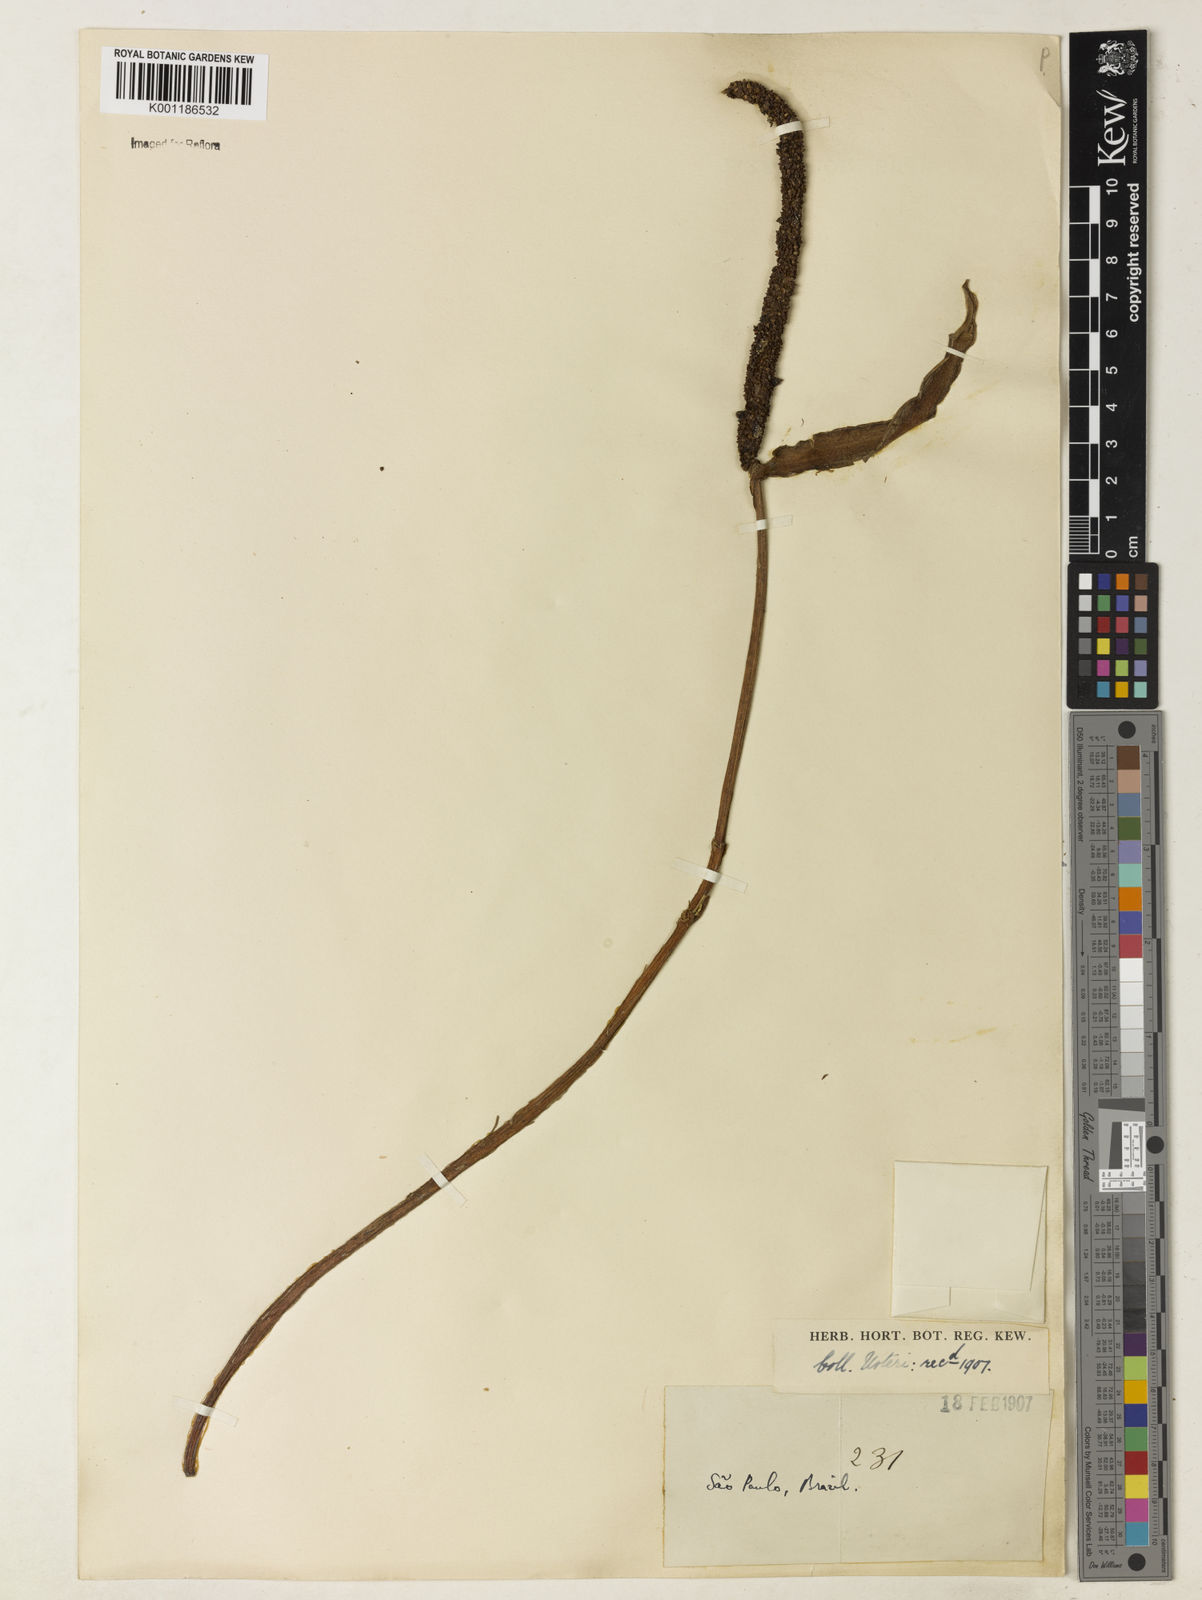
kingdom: Plantae
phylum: Tracheophyta
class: Liliopsida
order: Alismatales
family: Araceae
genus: Anthurium
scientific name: Anthurium intermedium
